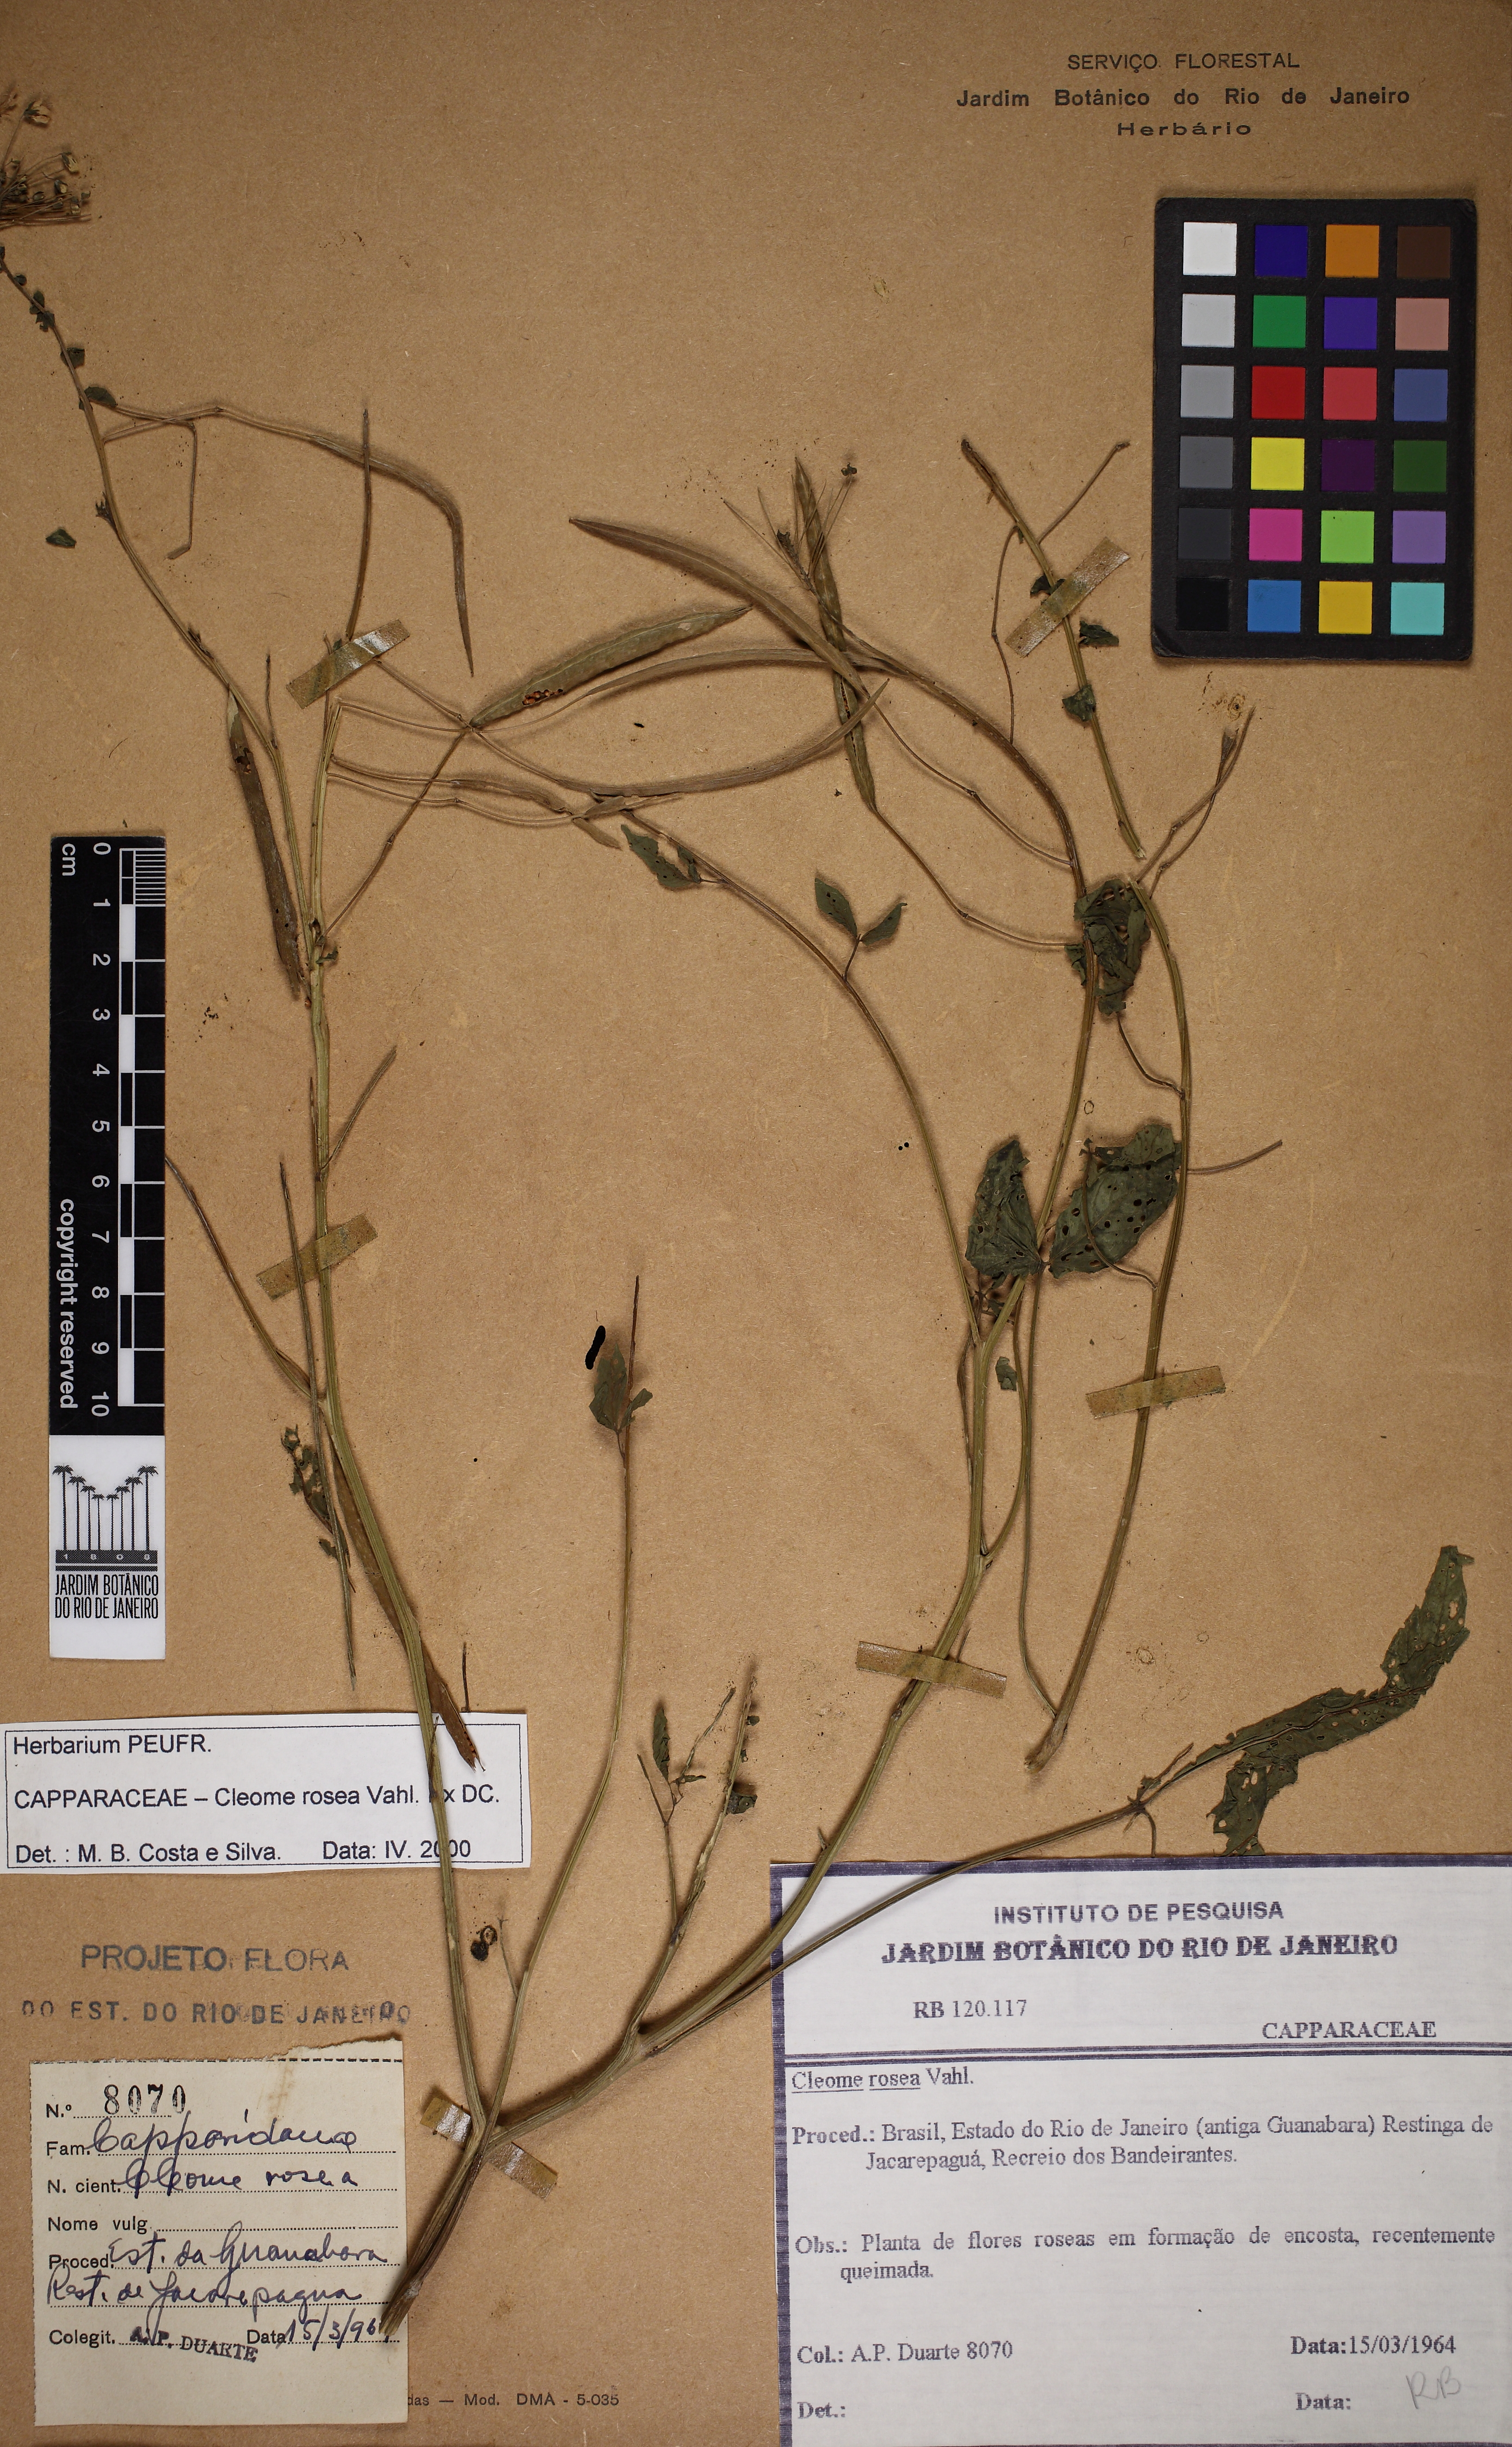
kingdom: Plantae
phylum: Tracheophyta
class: Magnoliopsida
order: Brassicales
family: Cleomaceae
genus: Tarenaya
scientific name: Tarenaya rosea
